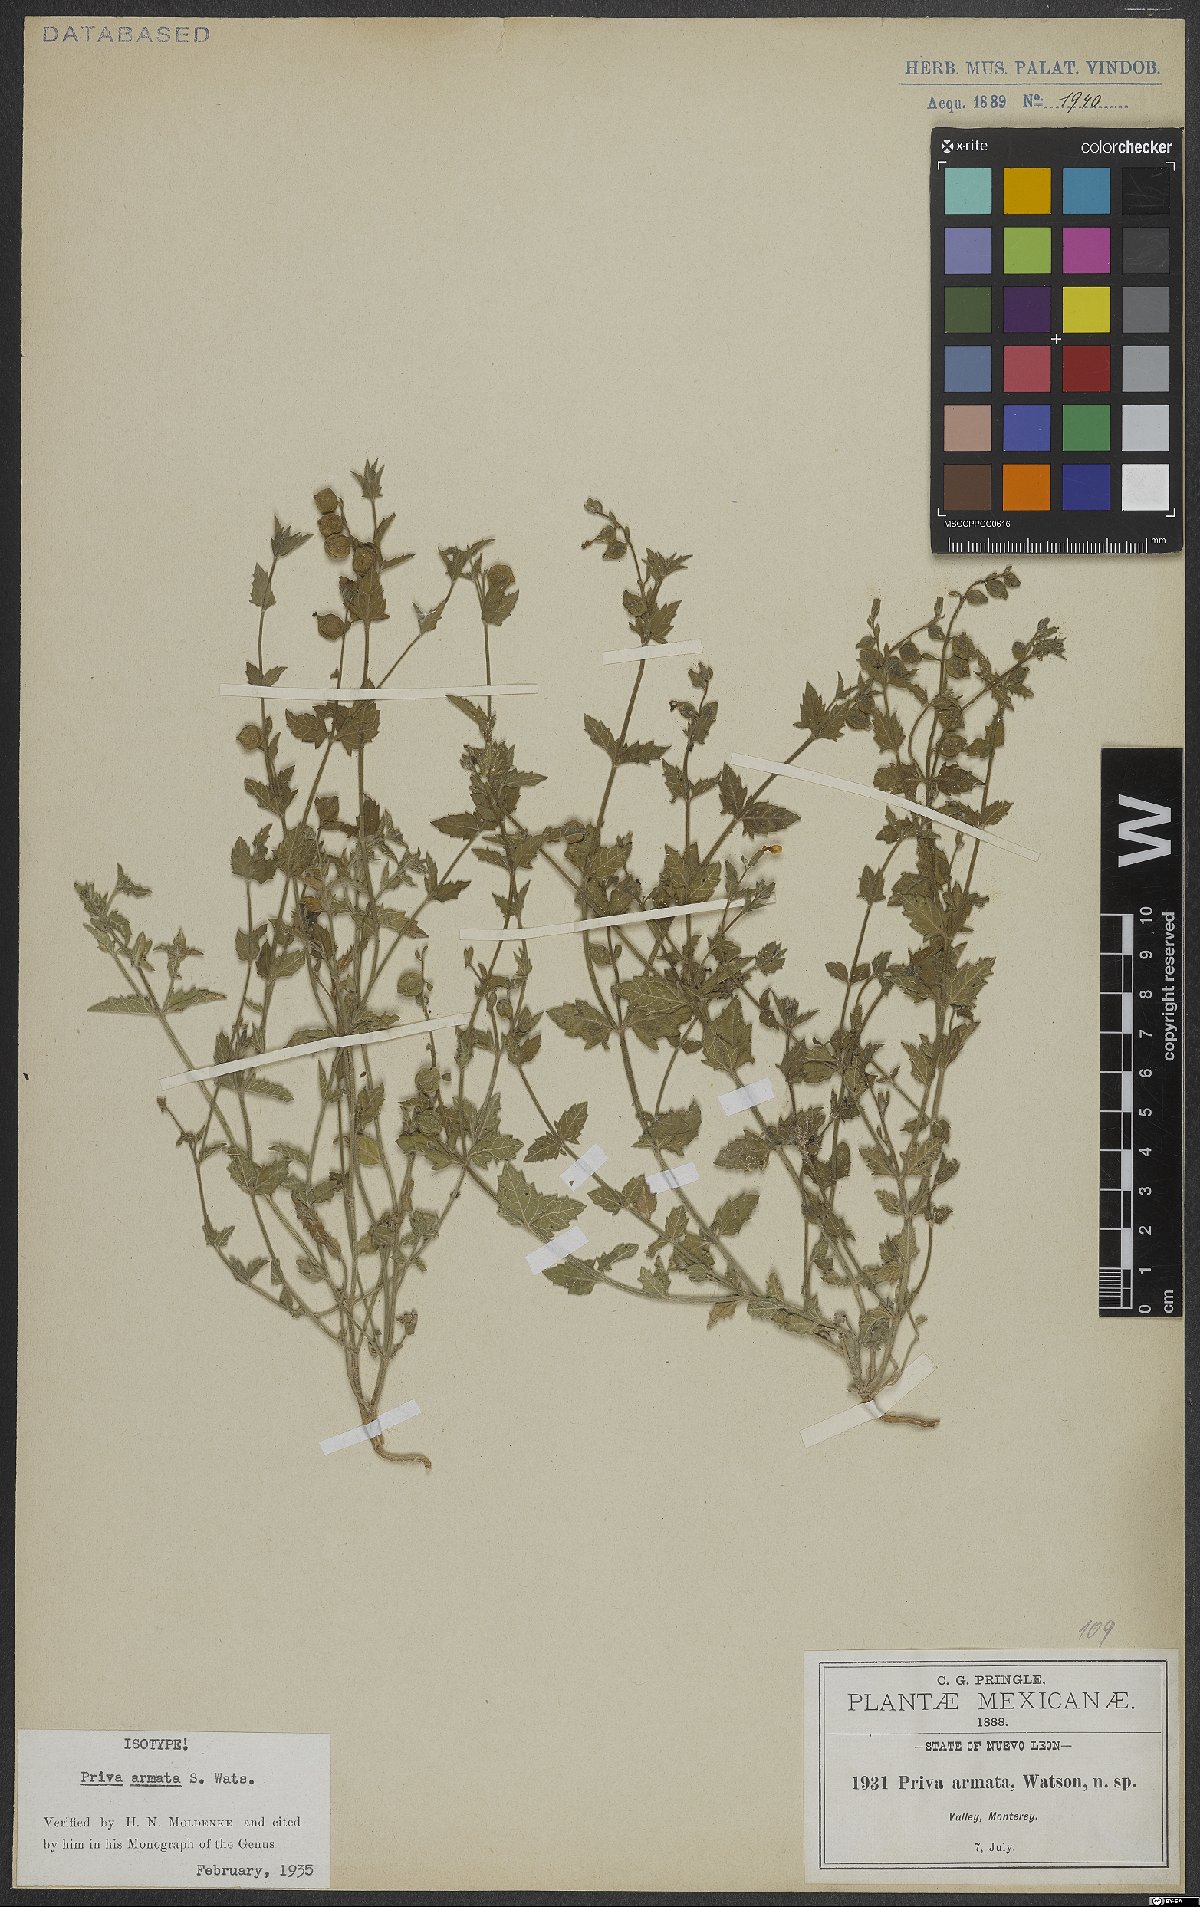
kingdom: Plantae
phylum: Tracheophyta
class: Magnoliopsida
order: Lamiales
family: Verbenaceae
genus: Priva
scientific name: Priva armata
